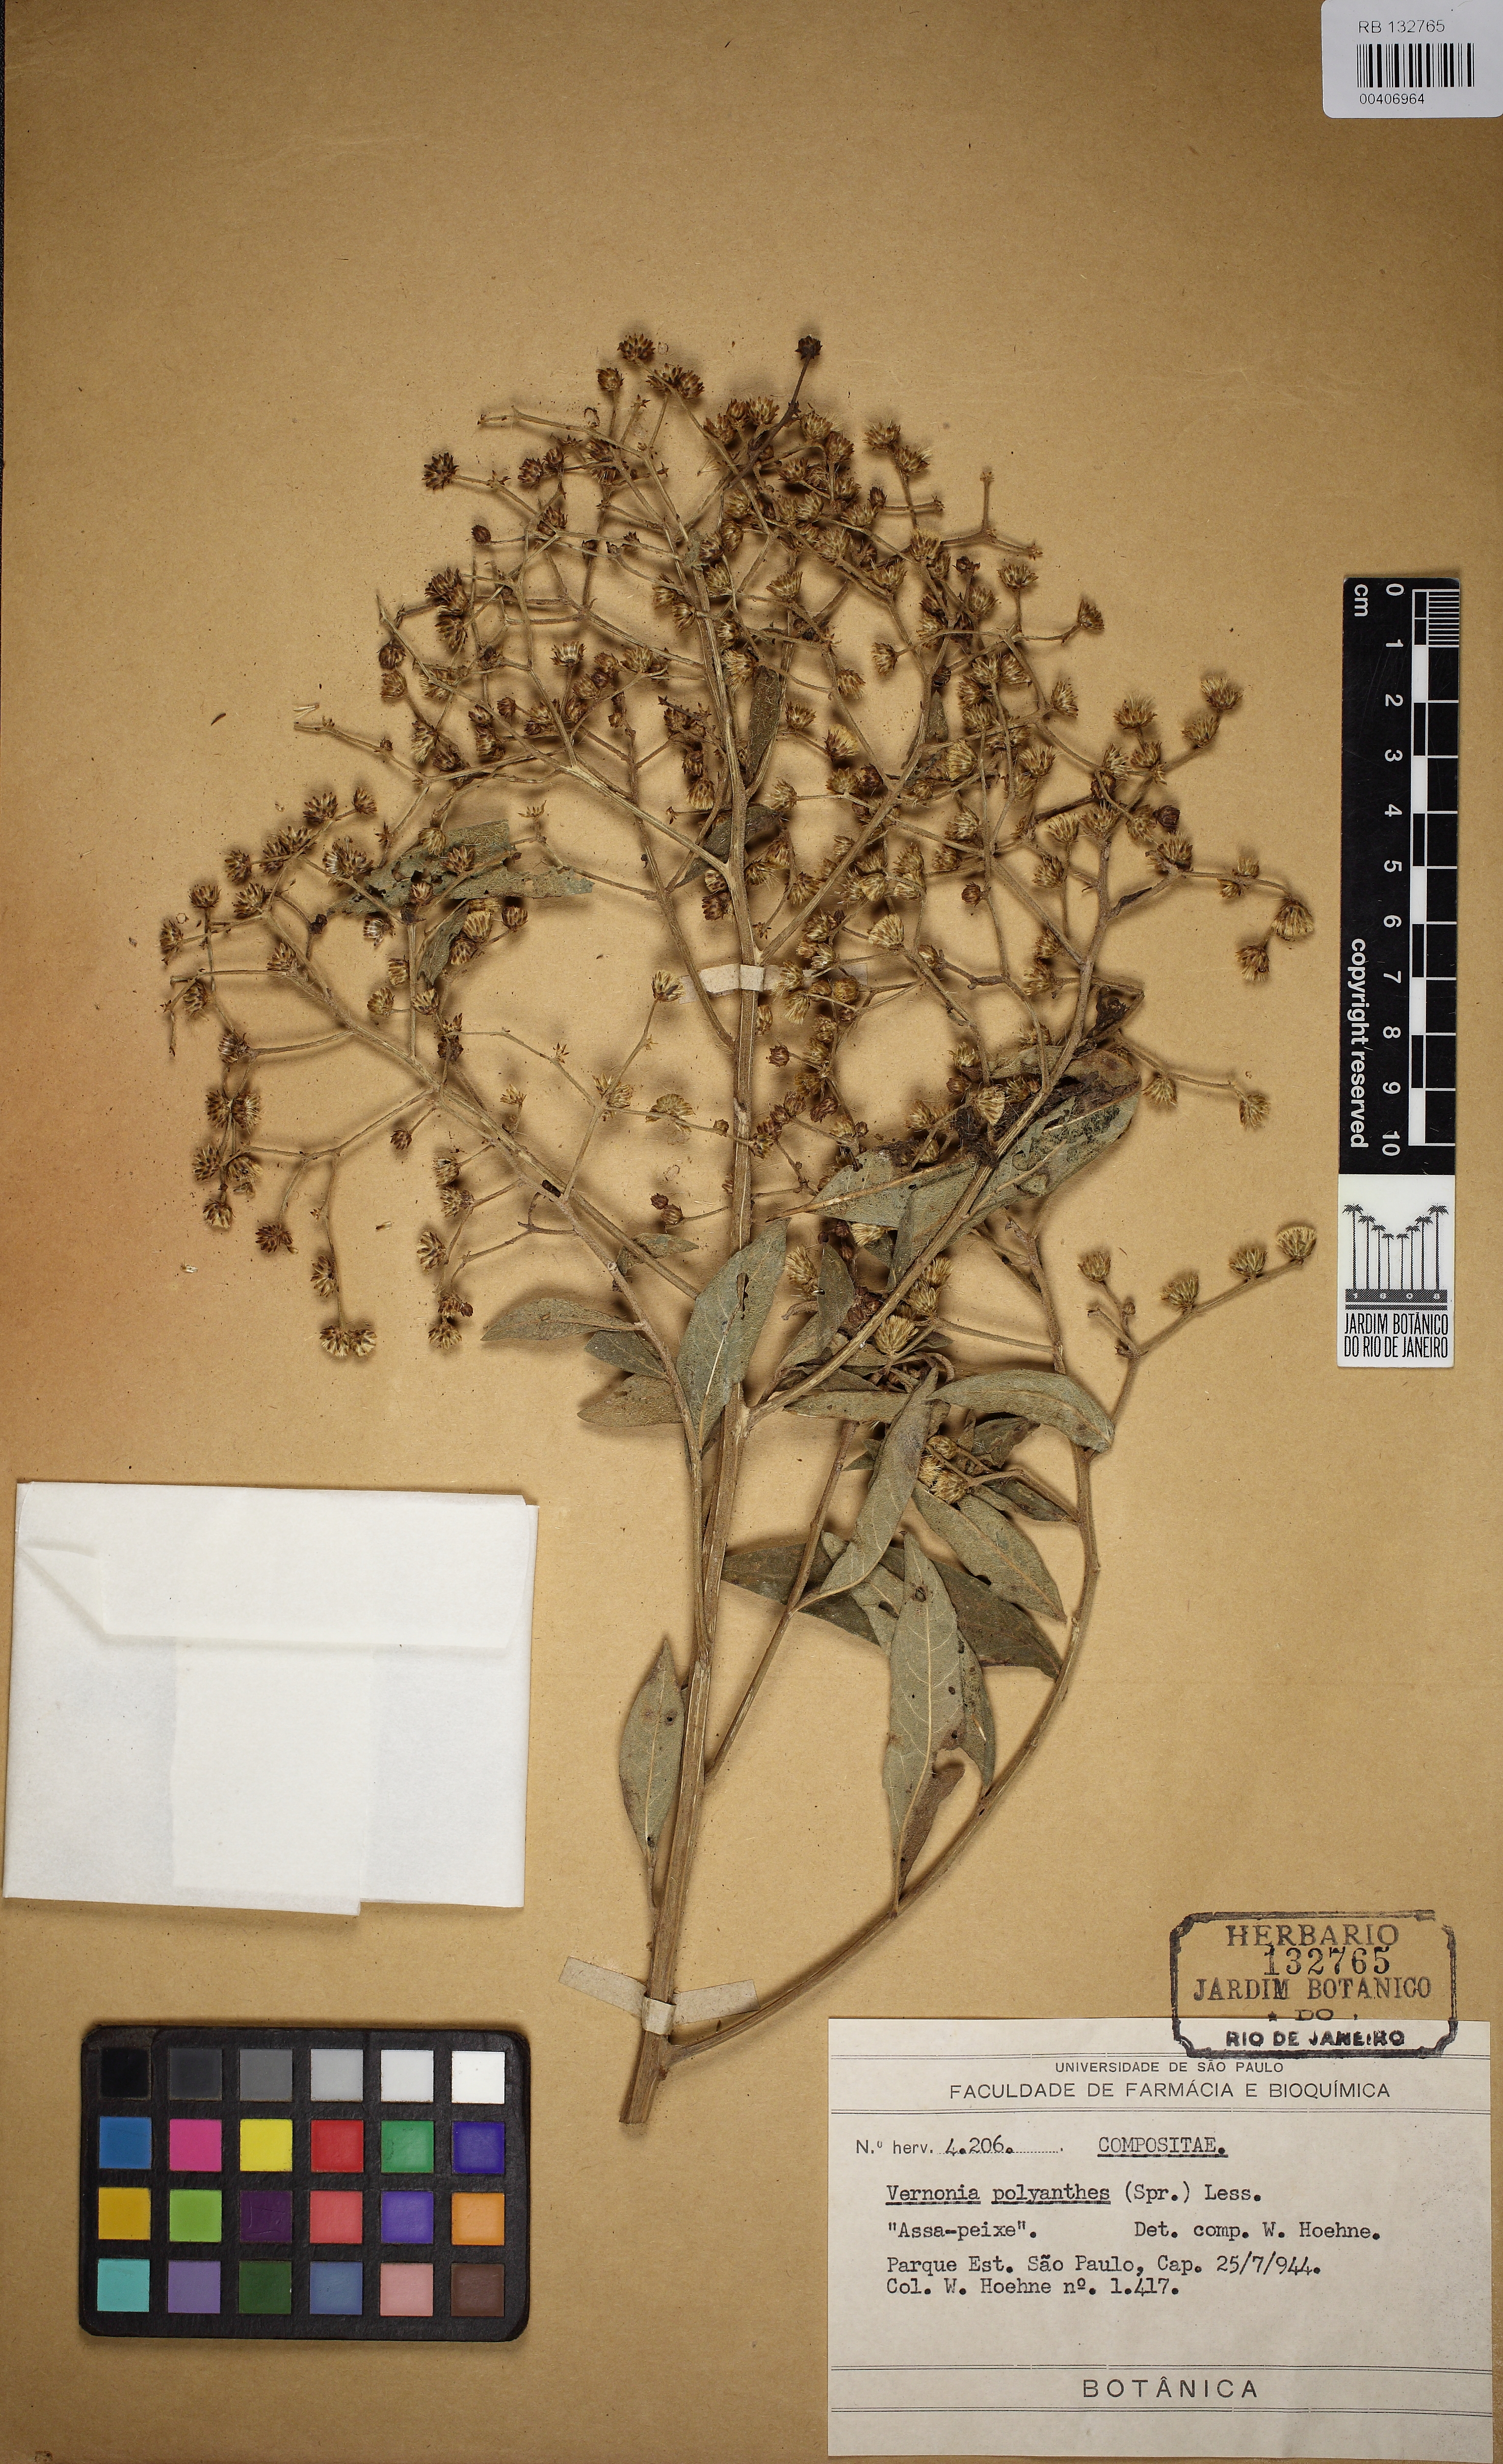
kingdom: Plantae
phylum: Tracheophyta
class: Magnoliopsida
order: Asterales
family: Asteraceae
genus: Vernonanthura
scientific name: Vernonanthura polyanthes
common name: Tree aster
